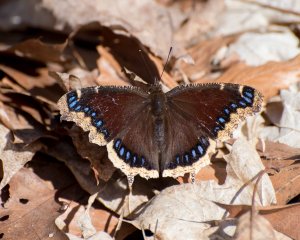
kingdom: Animalia
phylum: Arthropoda
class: Insecta
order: Lepidoptera
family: Nymphalidae
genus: Nymphalis
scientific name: Nymphalis antiopa
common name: Mourning Cloak
